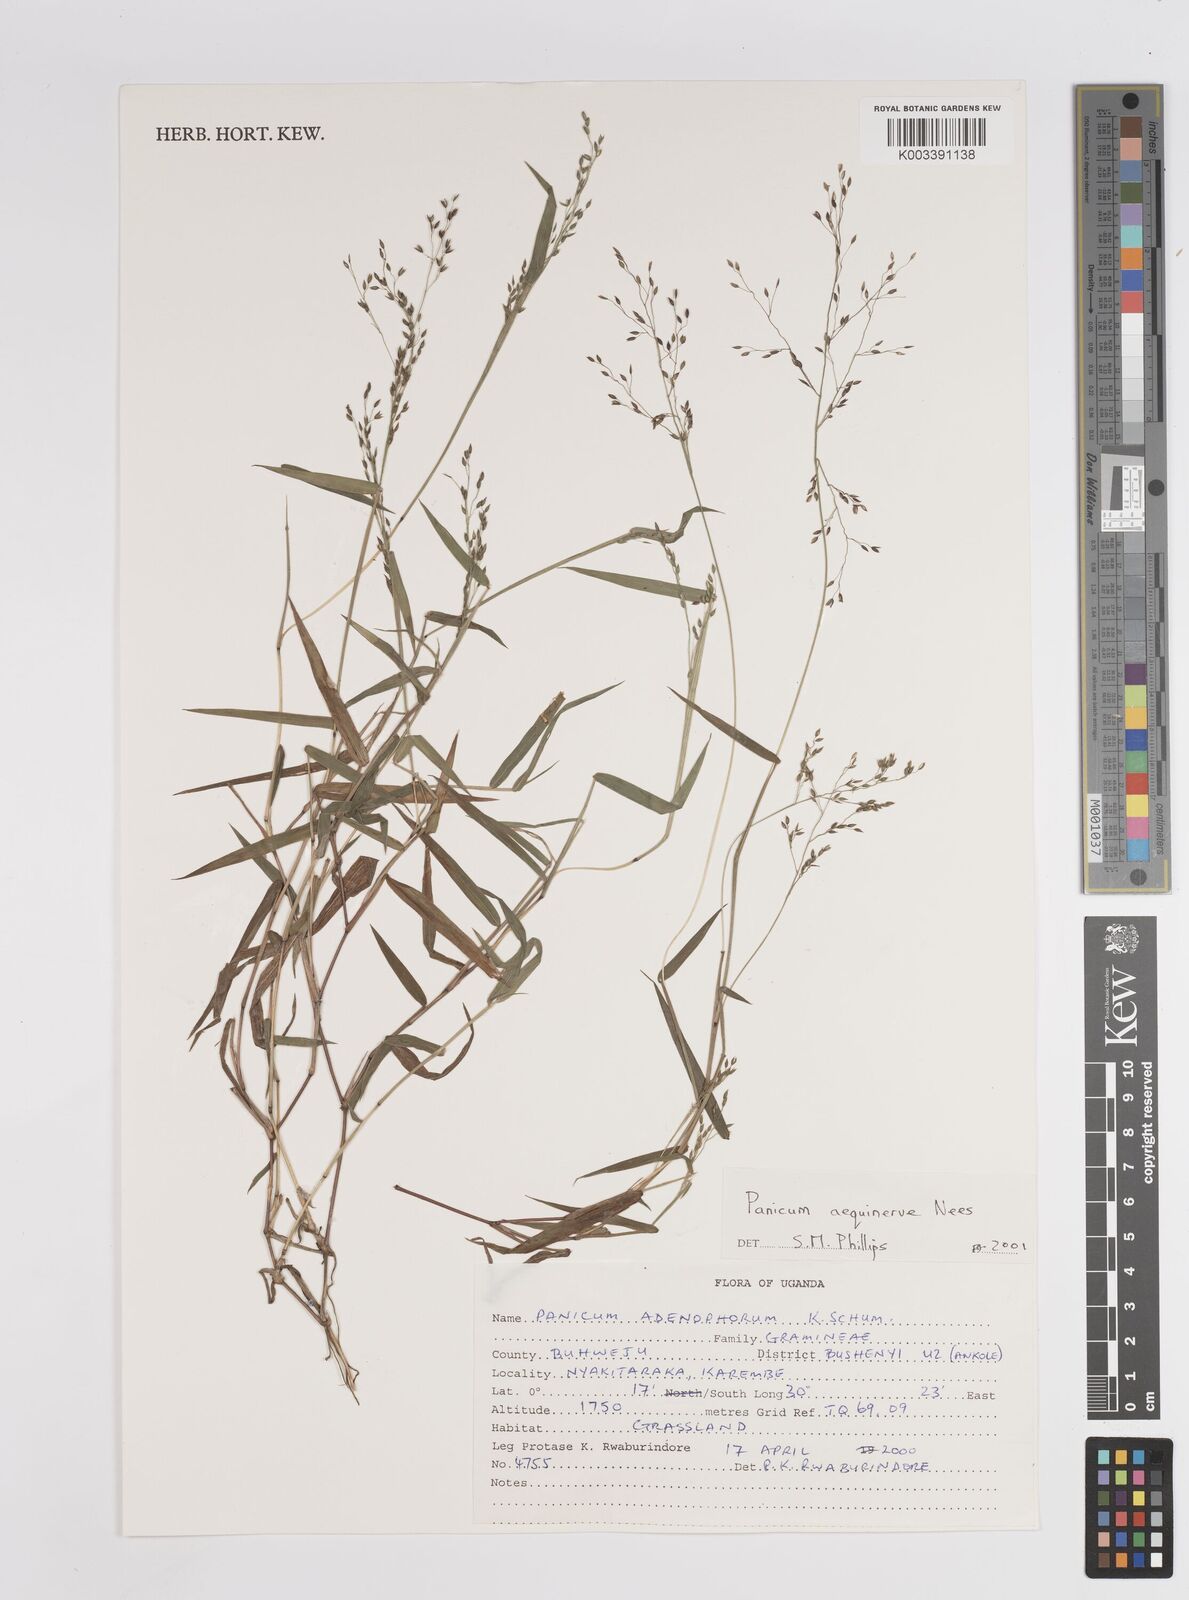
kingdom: Plantae
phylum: Tracheophyta
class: Liliopsida
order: Poales
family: Poaceae
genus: Panicum
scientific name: Panicum aequinerve
